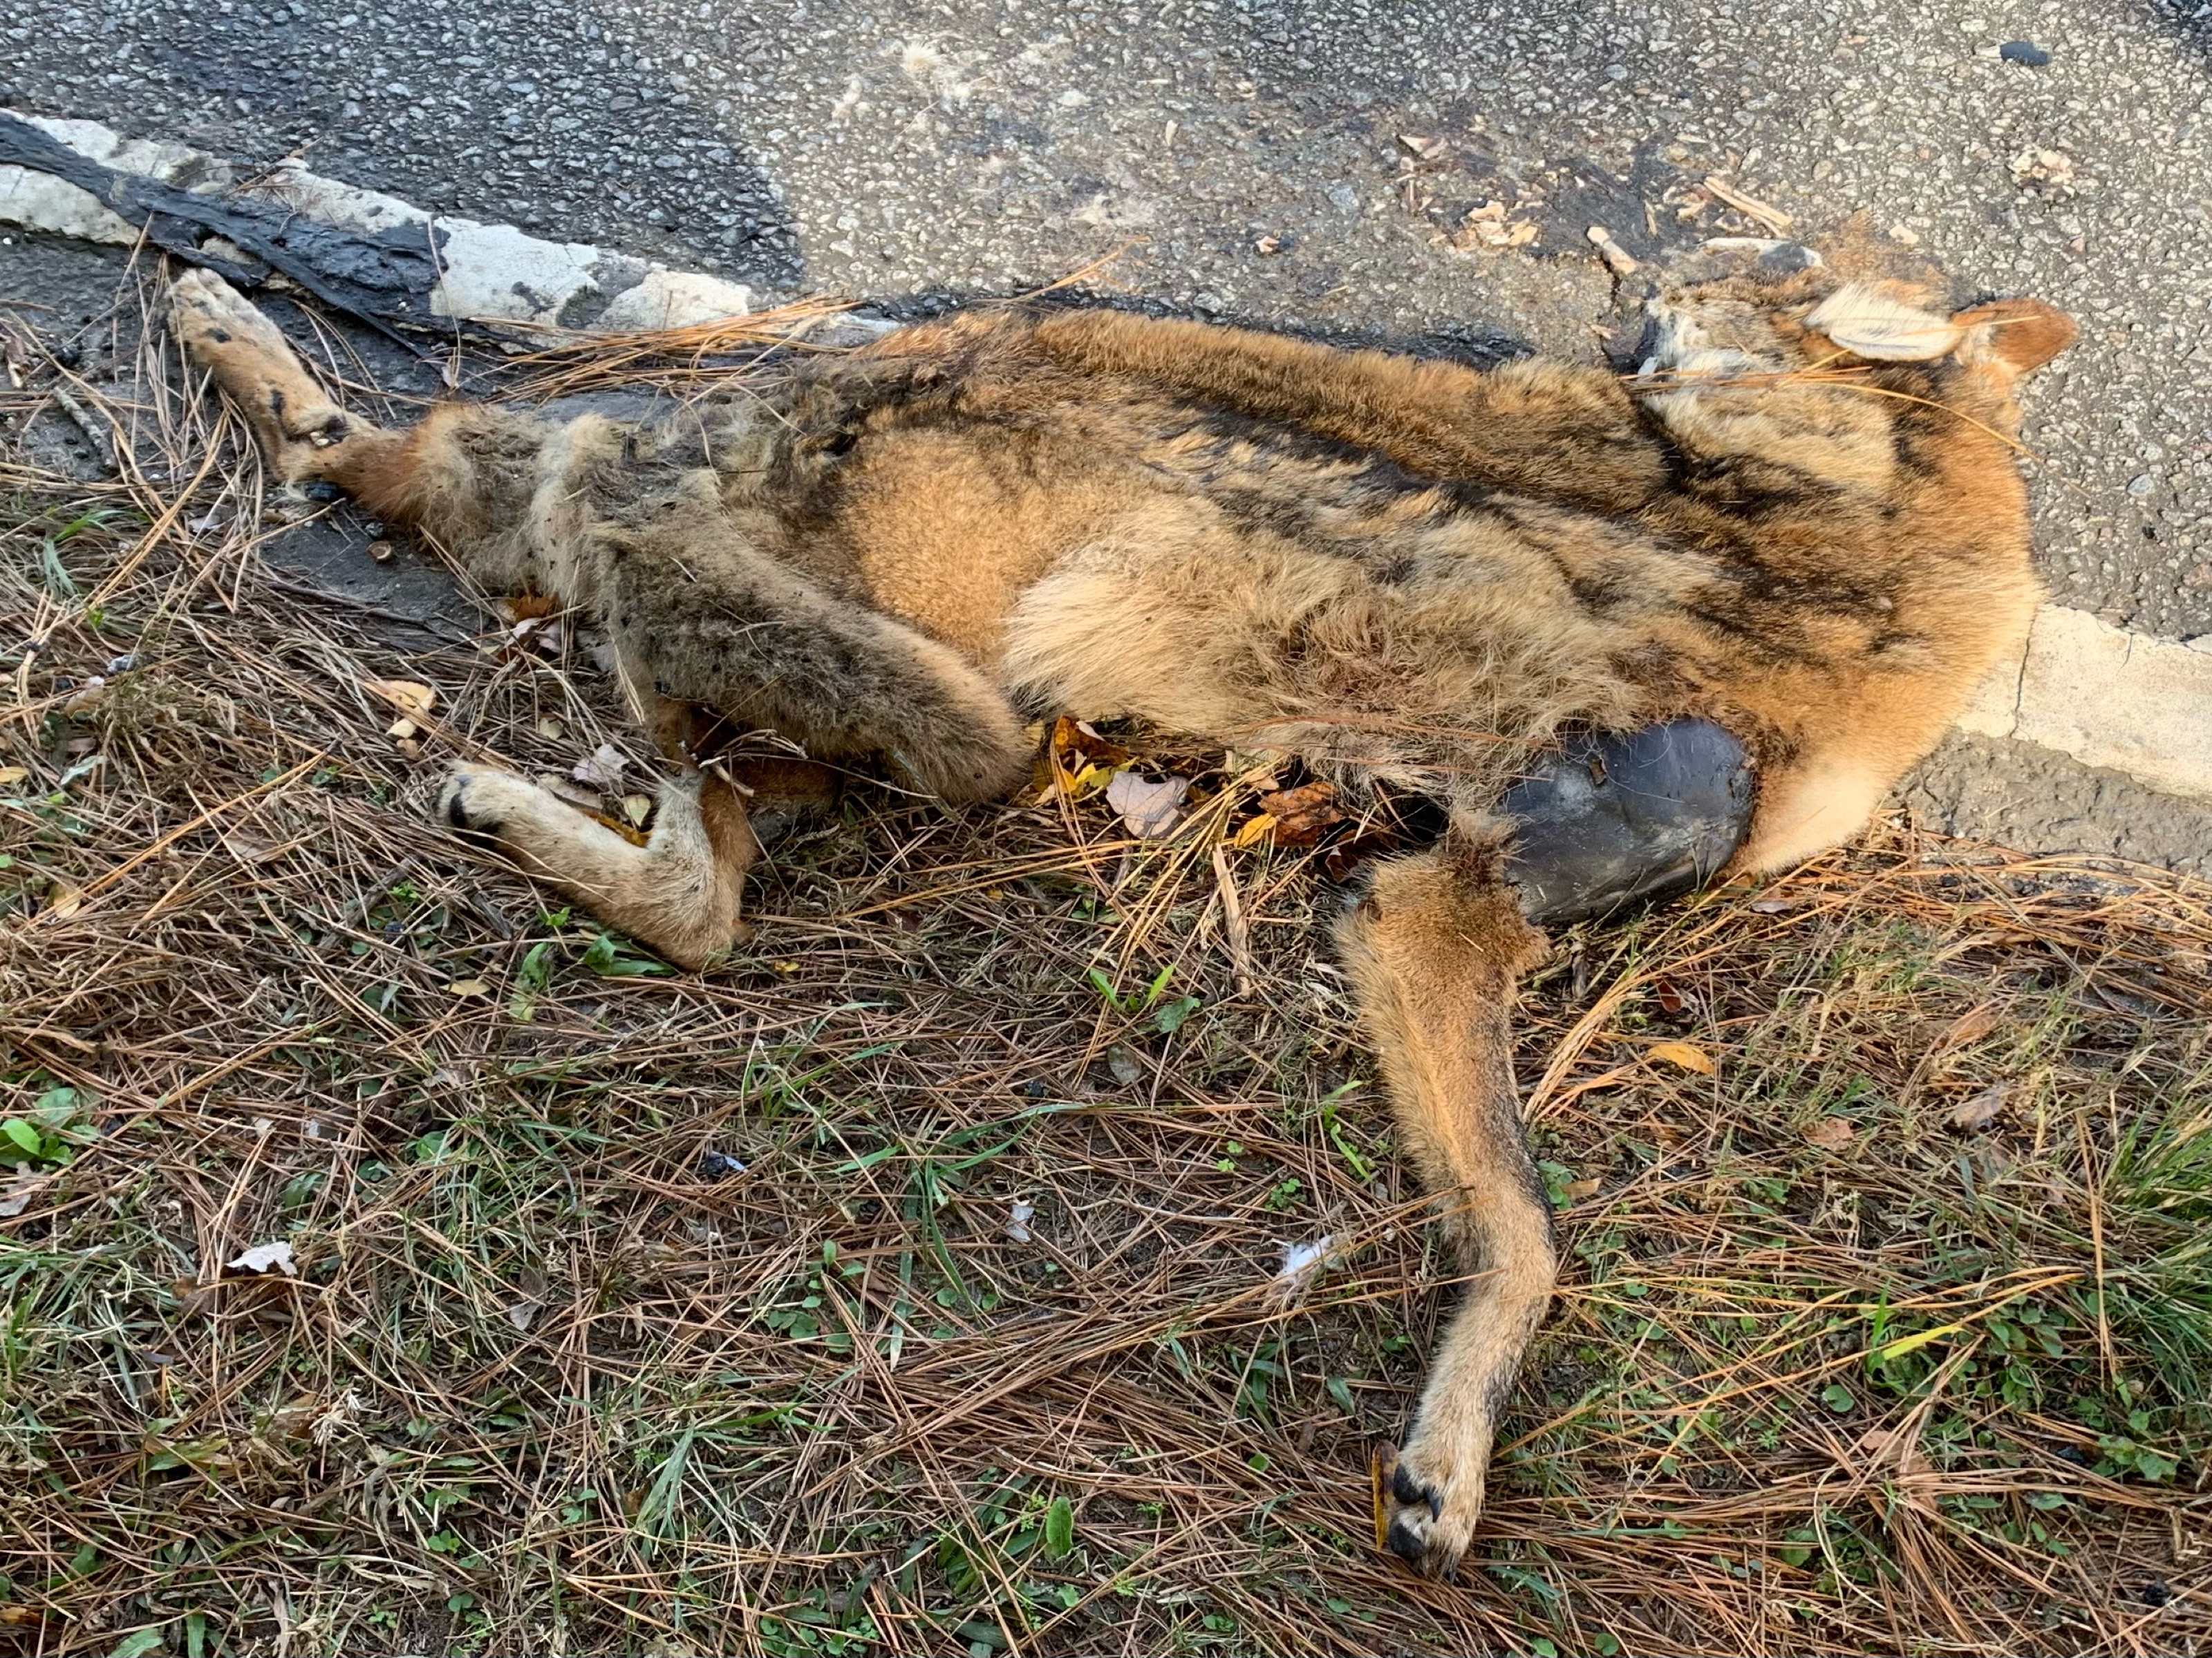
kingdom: Animalia
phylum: Chordata
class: Mammalia
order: Carnivora
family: Canidae
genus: Urocyon
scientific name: Urocyon
